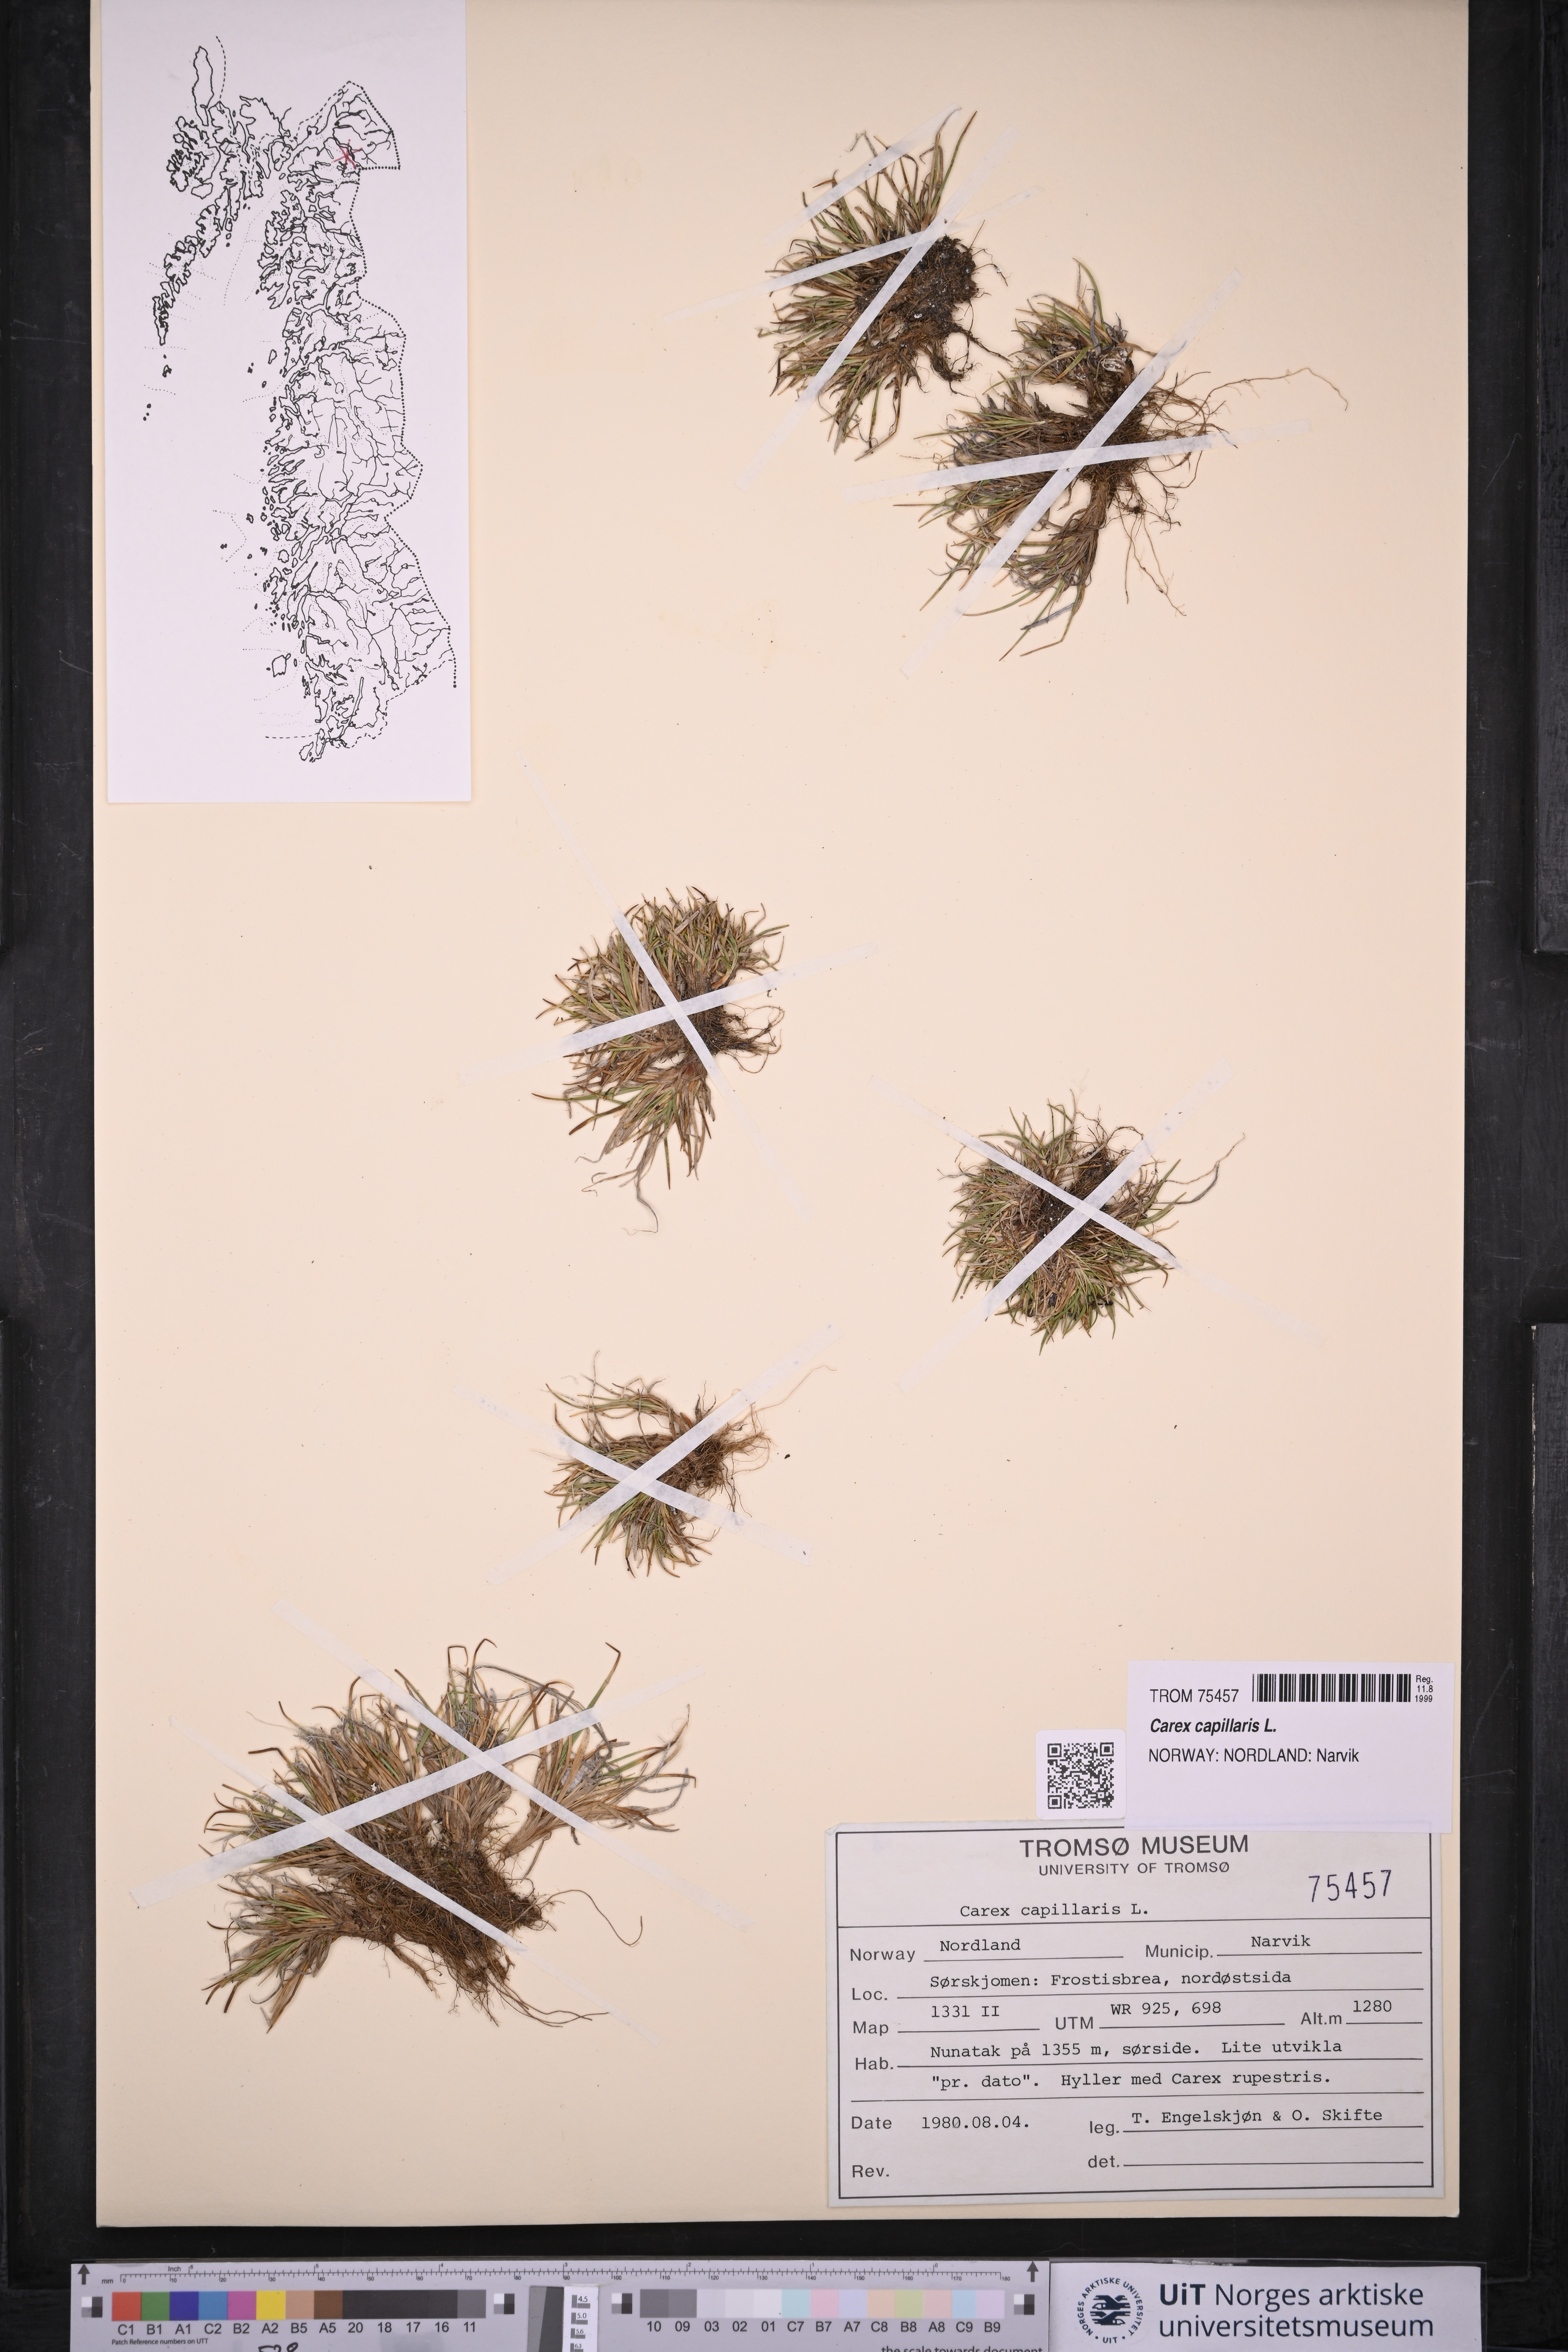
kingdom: Plantae
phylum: Tracheophyta
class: Liliopsida
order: Poales
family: Cyperaceae
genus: Carex
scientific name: Carex capillaris
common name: Hair sedge
